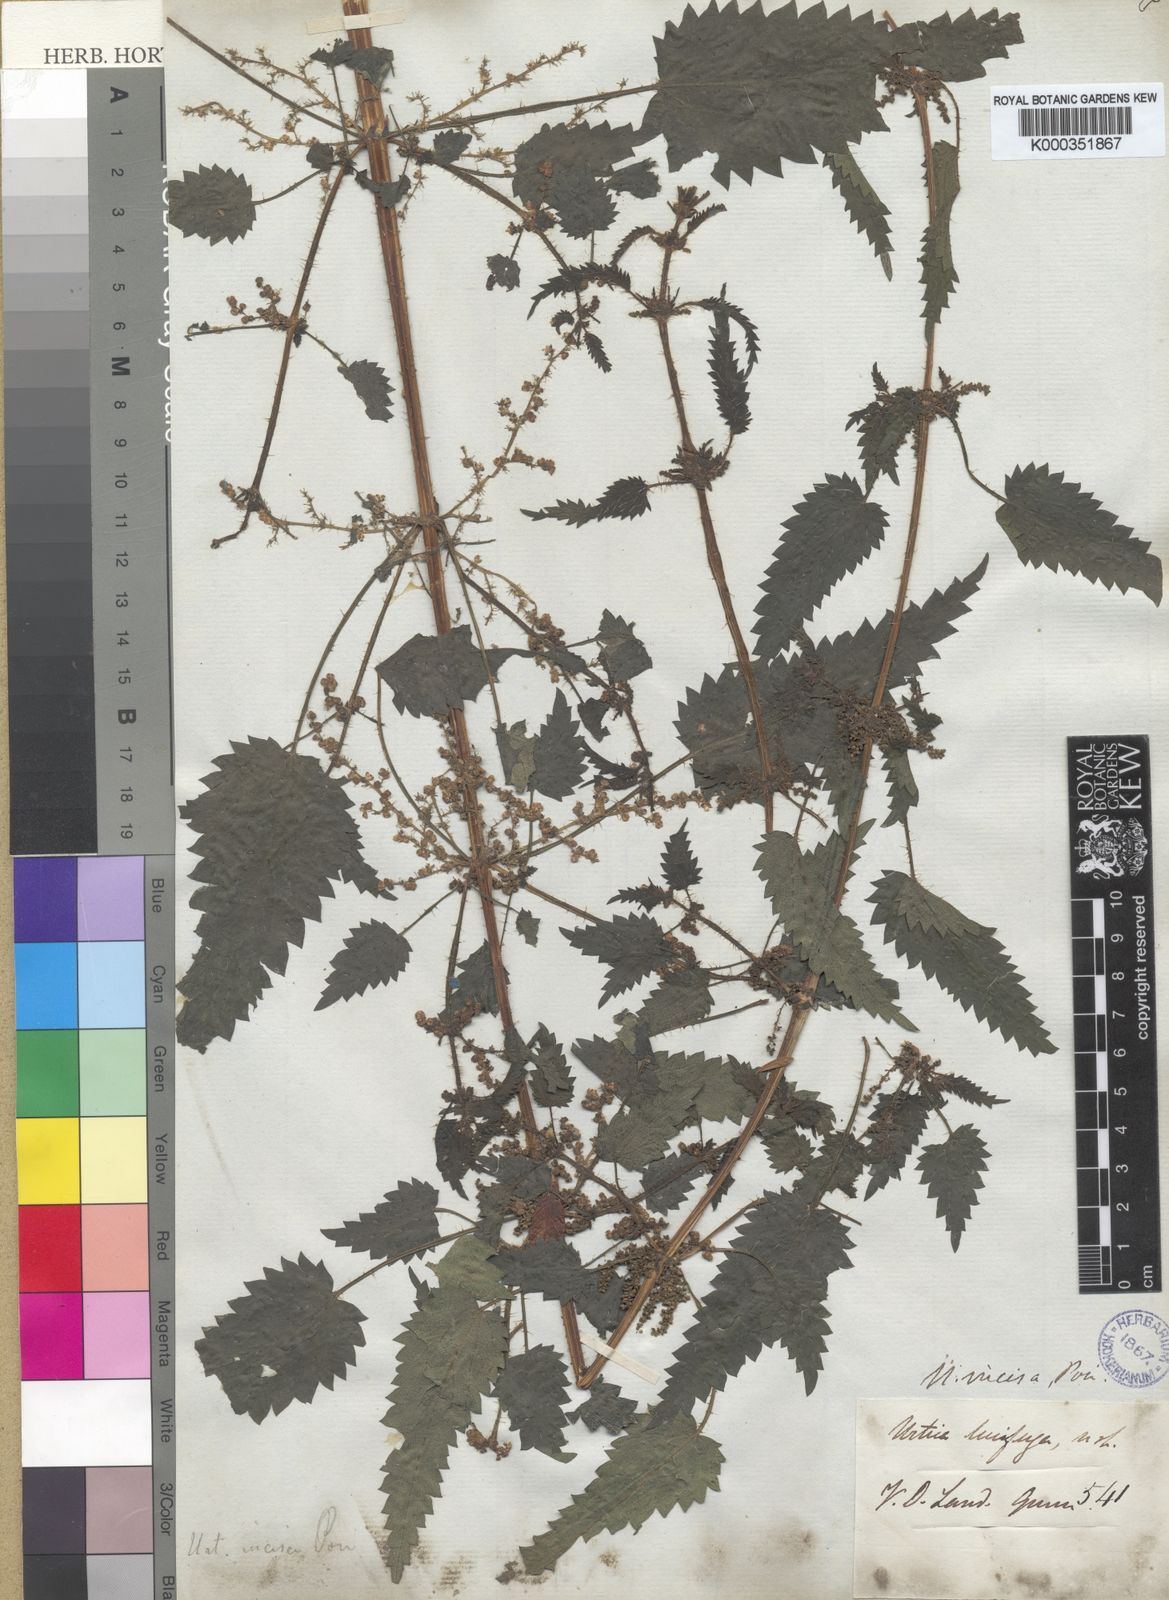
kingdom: Plantae
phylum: Tracheophyta
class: Magnoliopsida
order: Rosales
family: Urticaceae
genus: Urtica
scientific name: Urtica incisa
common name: Scrub nettle
